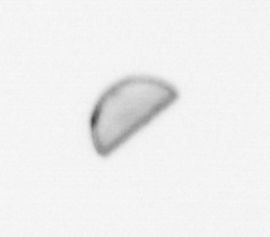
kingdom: Chromista
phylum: Ochrophyta
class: Bacillariophyceae
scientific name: Bacillariophyceae
